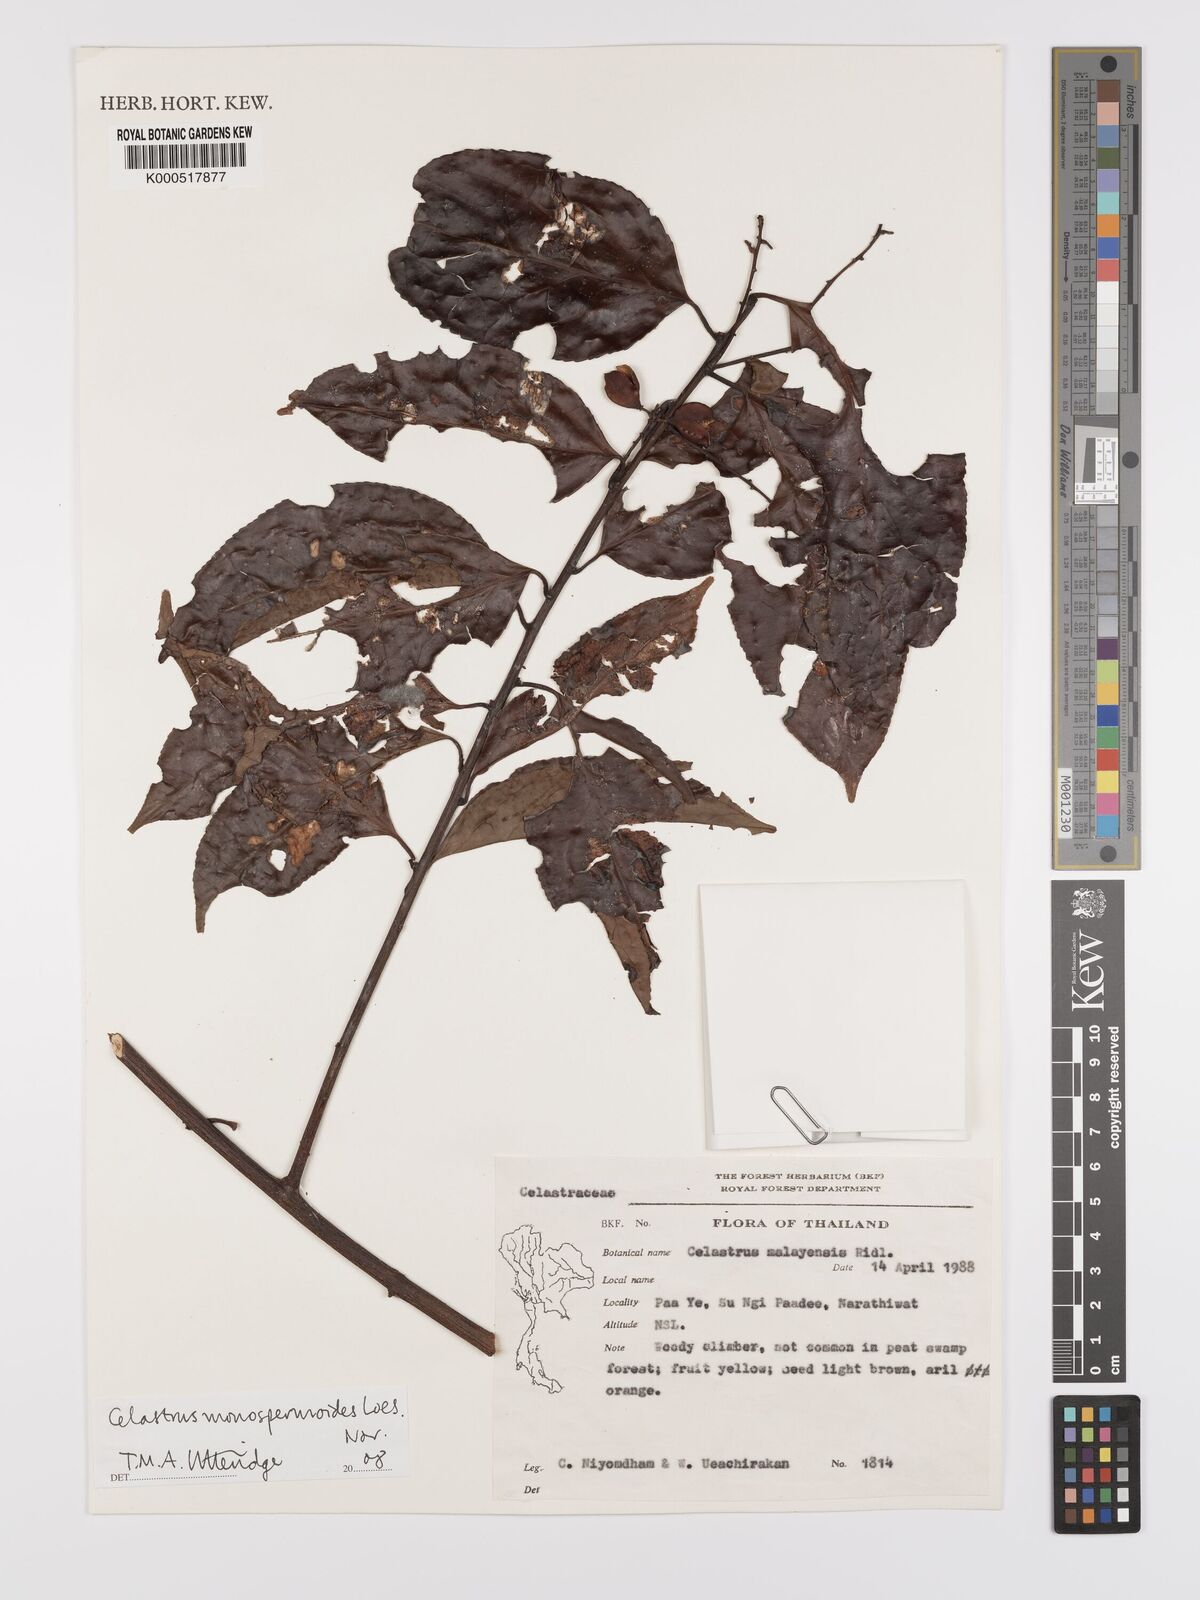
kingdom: Plantae
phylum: Tracheophyta
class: Magnoliopsida
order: Celastrales
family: Celastraceae
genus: Celastrus
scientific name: Celastrus monospermoides
